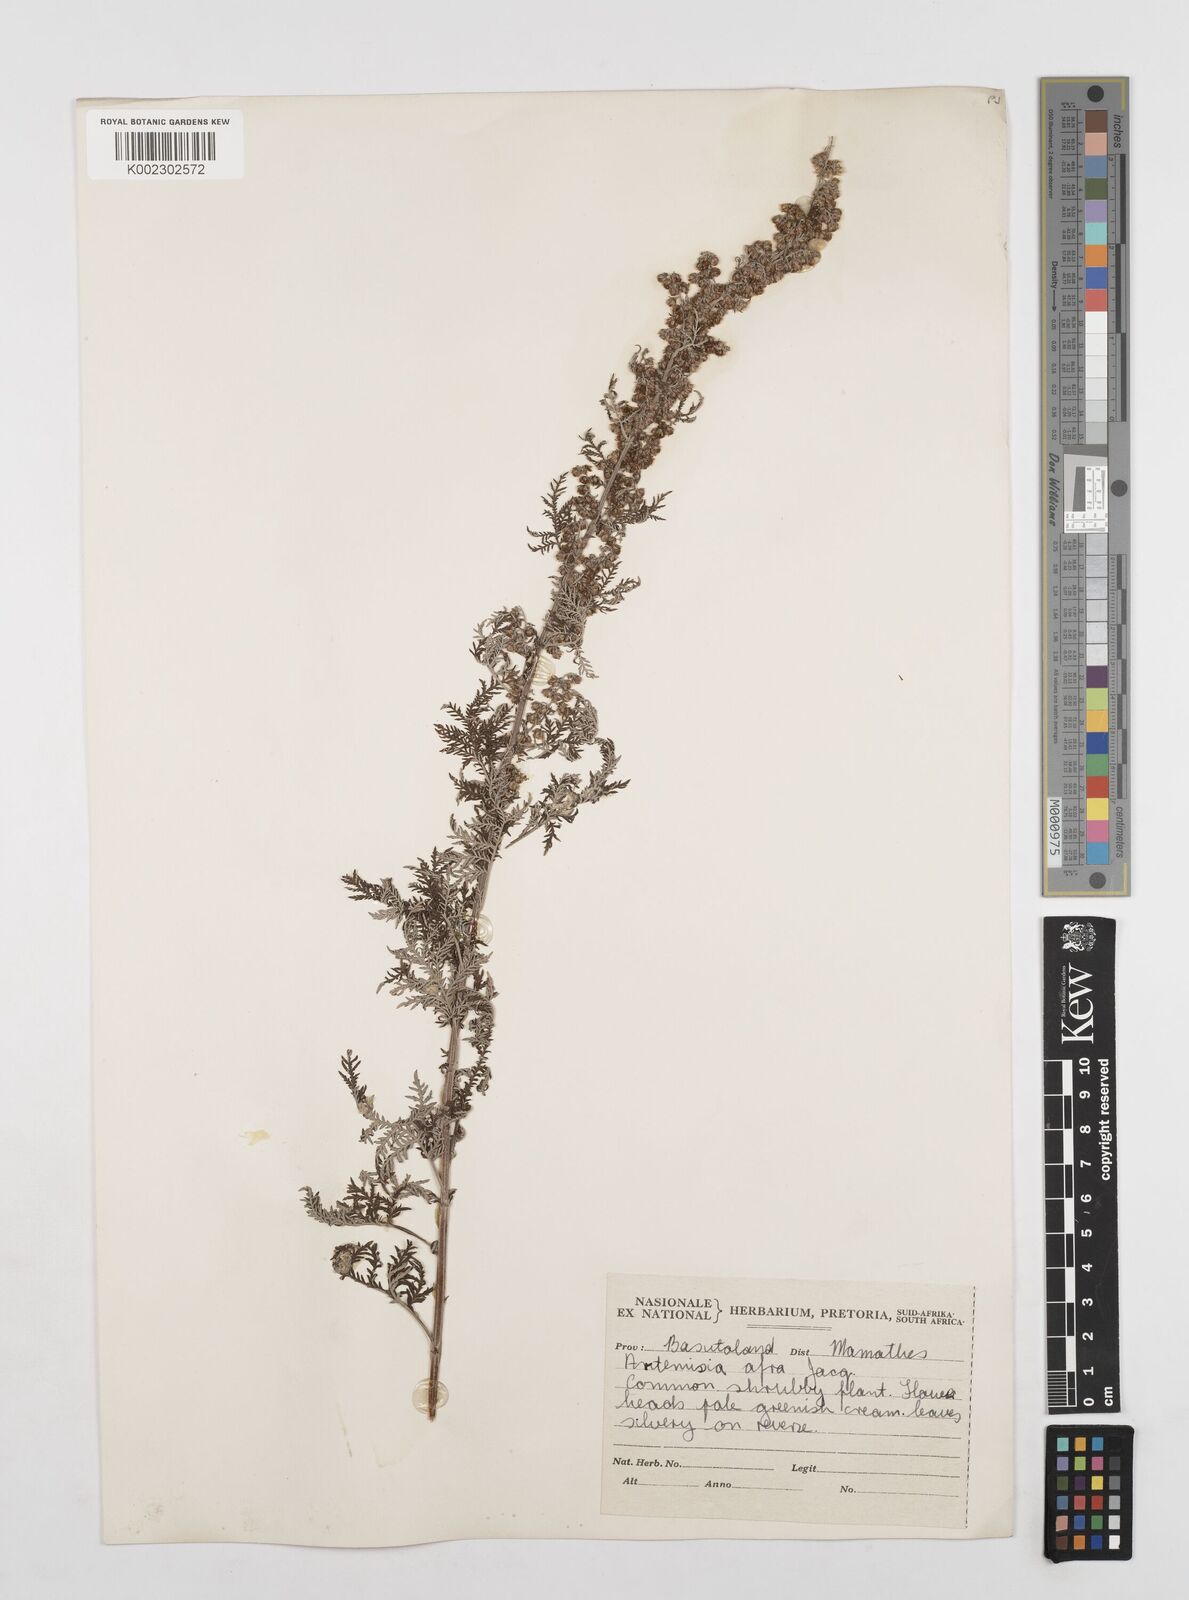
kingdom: Plantae
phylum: Tracheophyta
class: Magnoliopsida
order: Asterales
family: Asteraceae
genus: Artemisia
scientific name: Artemisia afra
